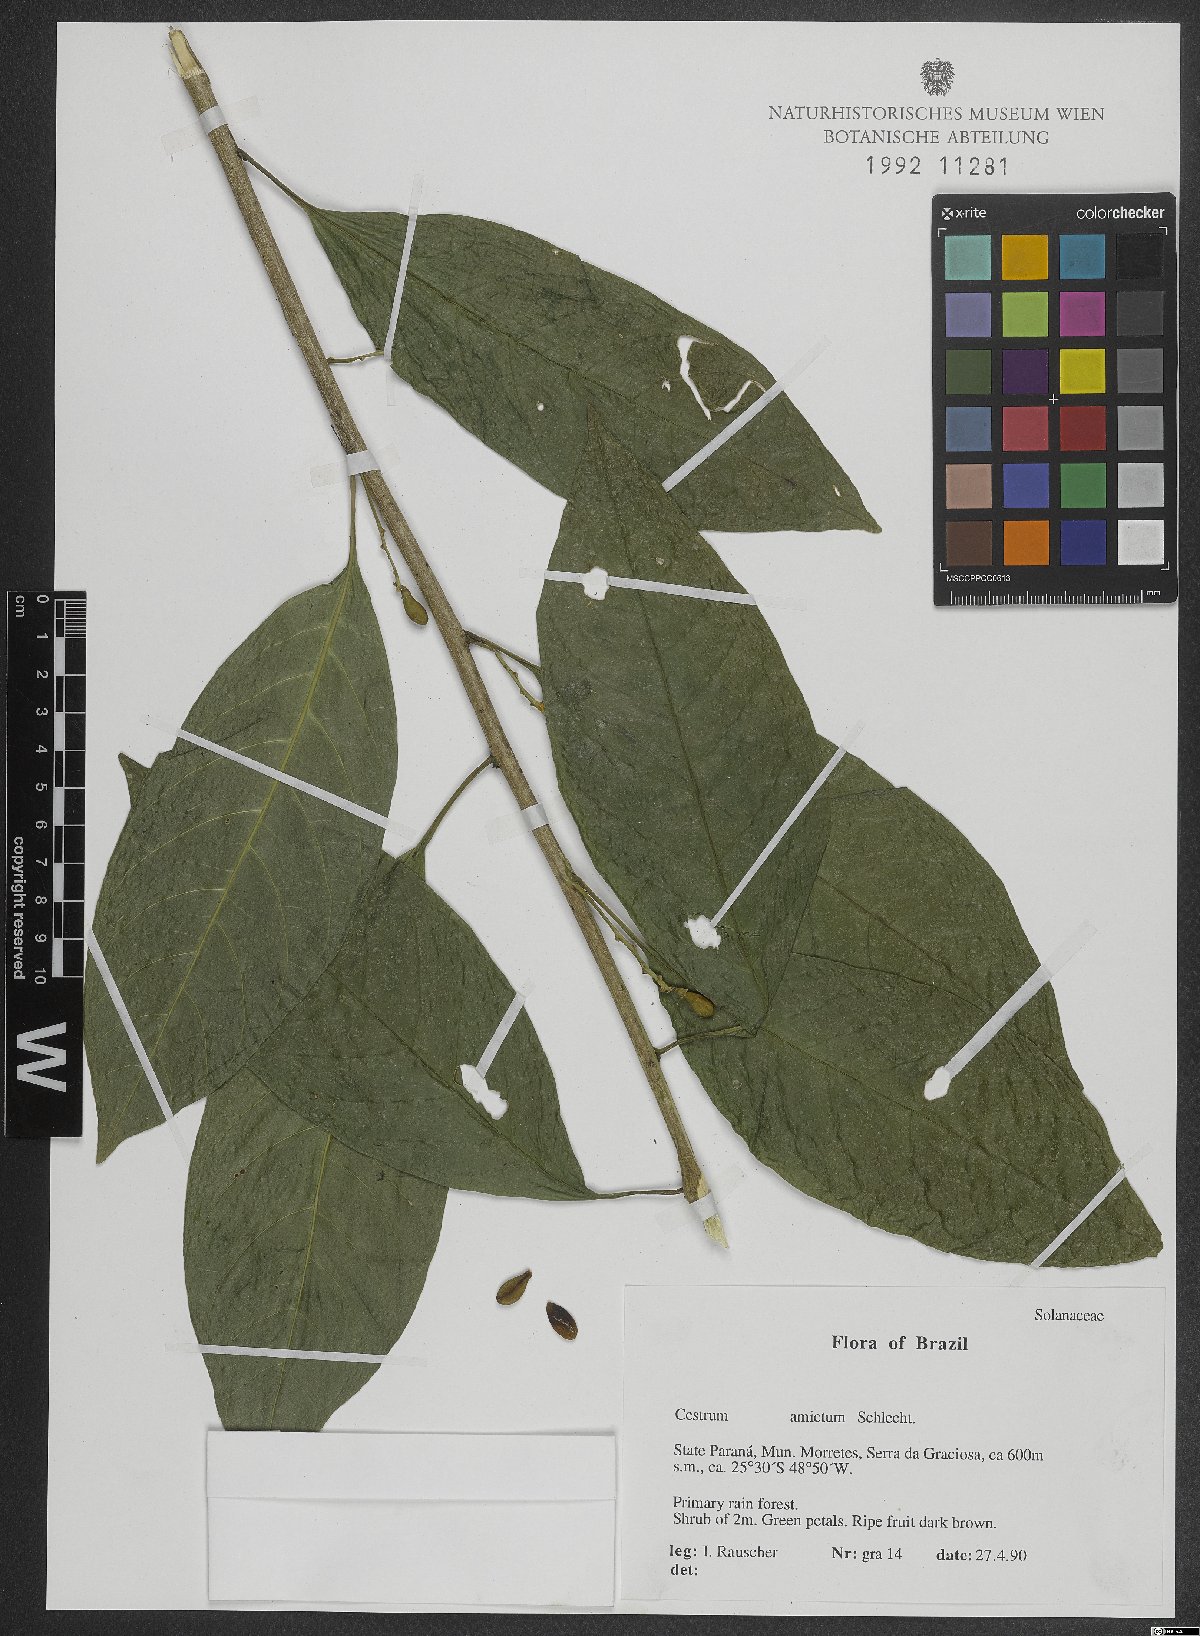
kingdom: Plantae
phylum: Tracheophyta
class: Magnoliopsida
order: Solanales
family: Solanaceae
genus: Cestrum
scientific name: Cestrum bracteatum
